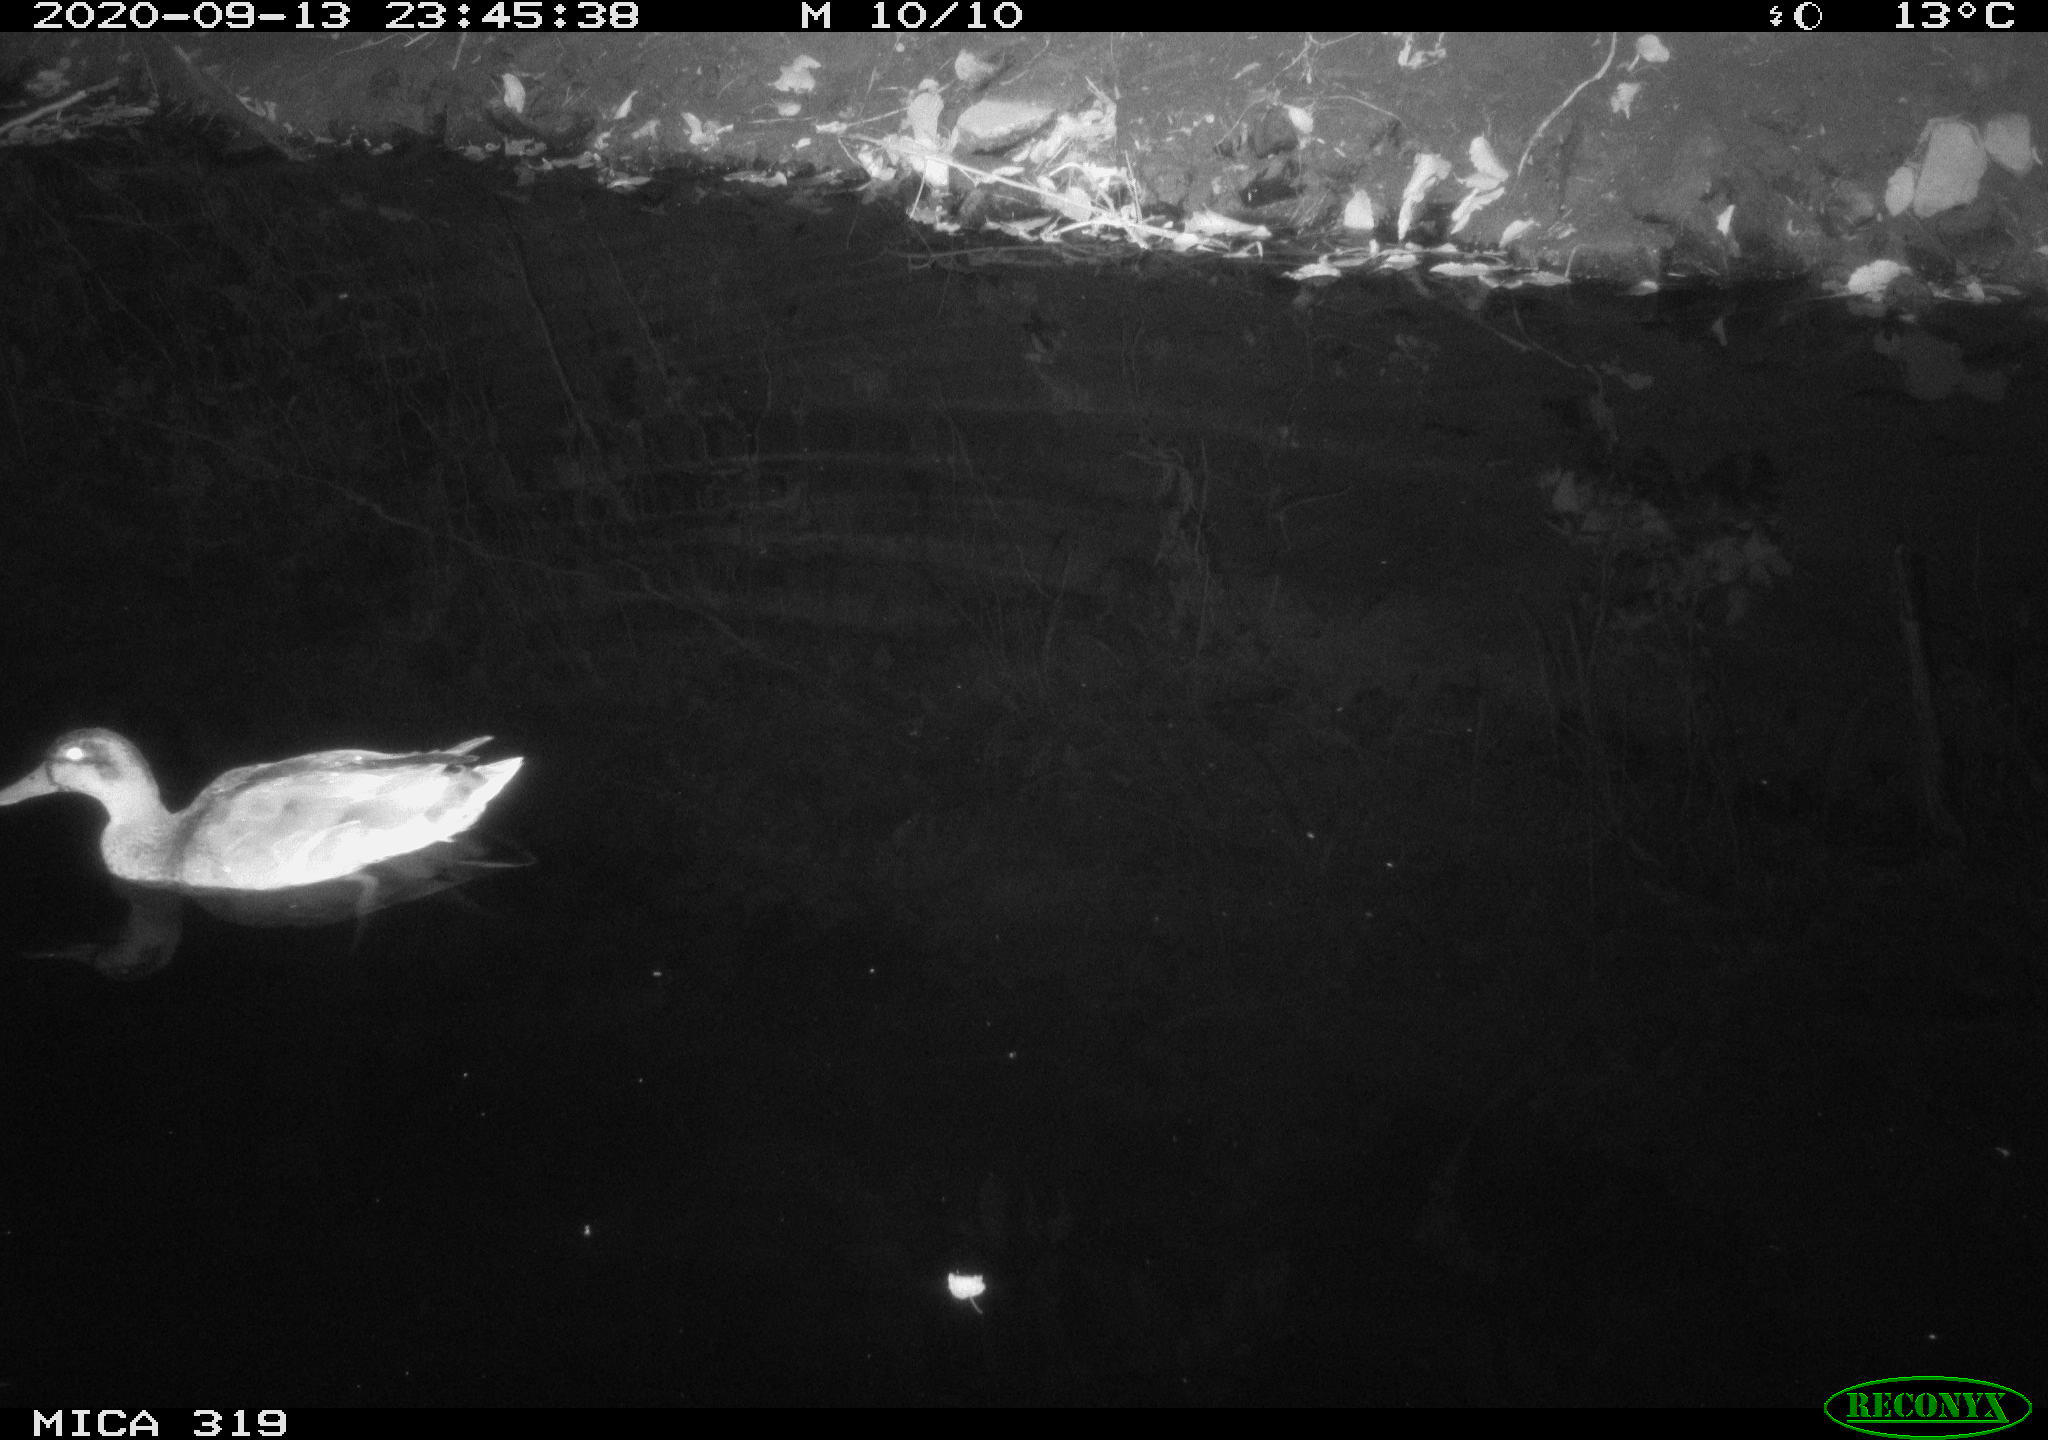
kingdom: Animalia
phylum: Chordata
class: Aves
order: Anseriformes
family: Anatidae
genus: Anas
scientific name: Anas platyrhynchos
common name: Mallard
